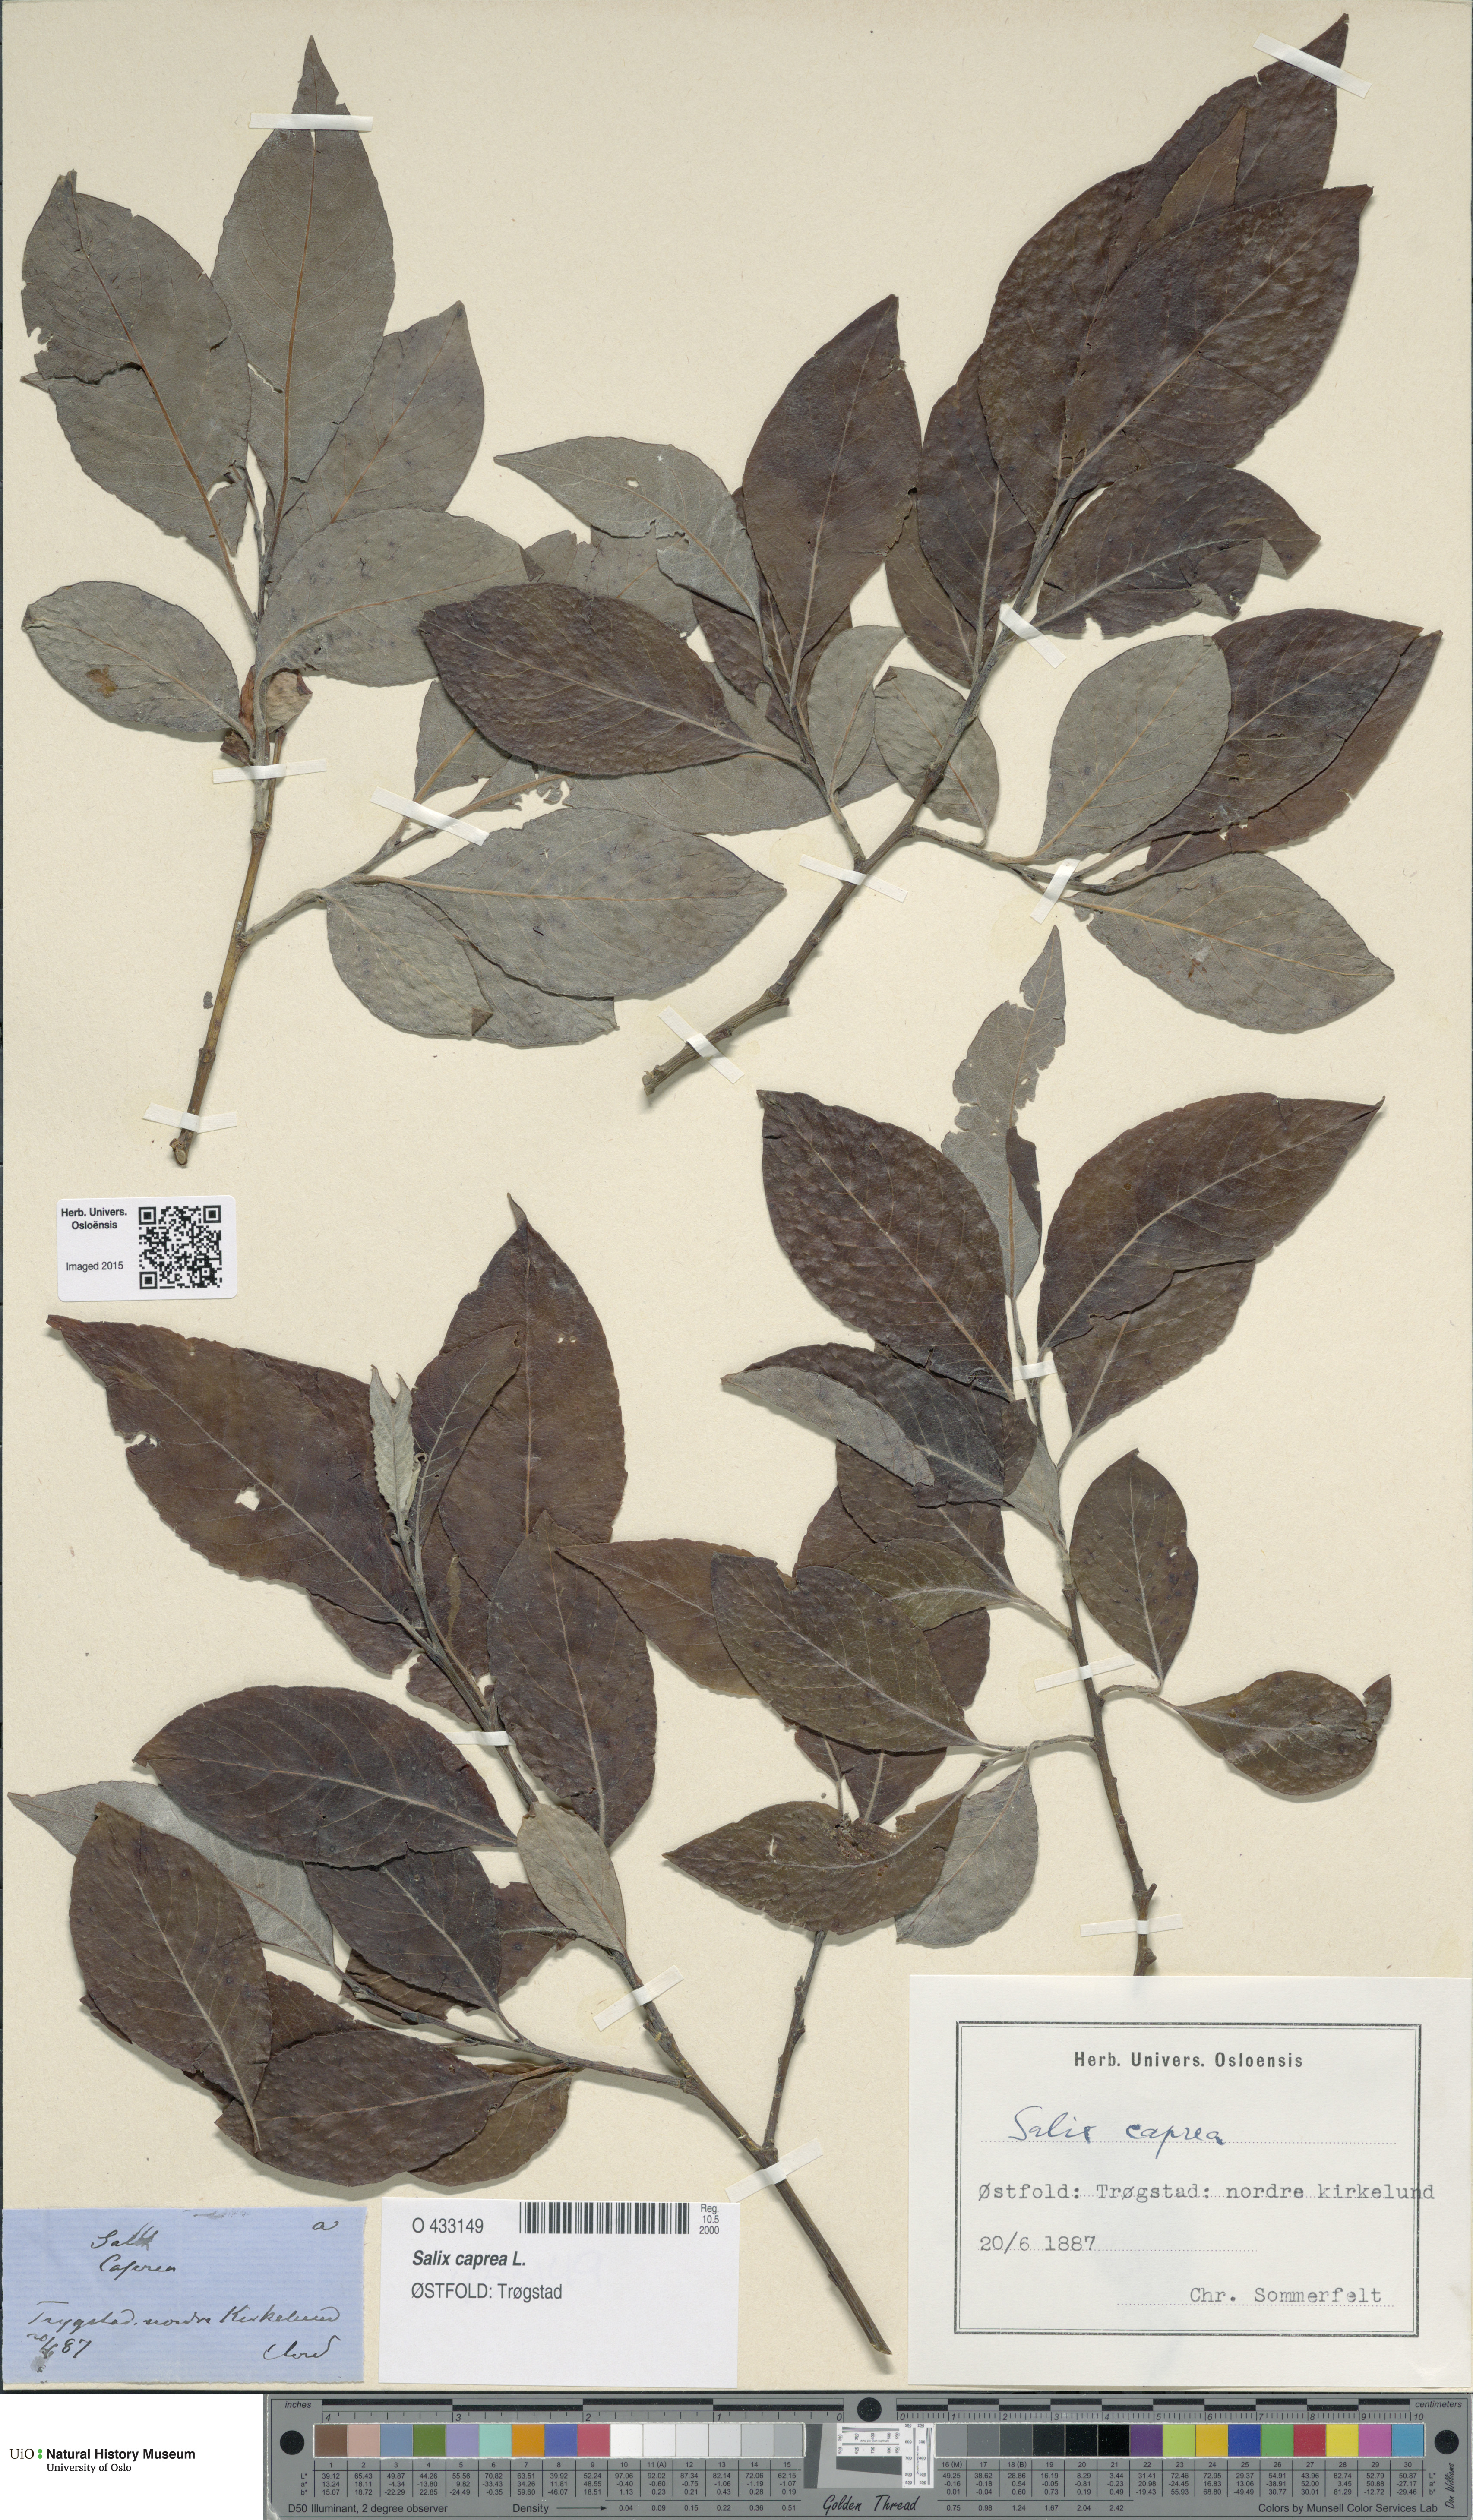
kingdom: Plantae
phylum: Tracheophyta
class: Magnoliopsida
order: Malpighiales
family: Salicaceae
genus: Salix
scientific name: Salix caprea
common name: Goat willow
